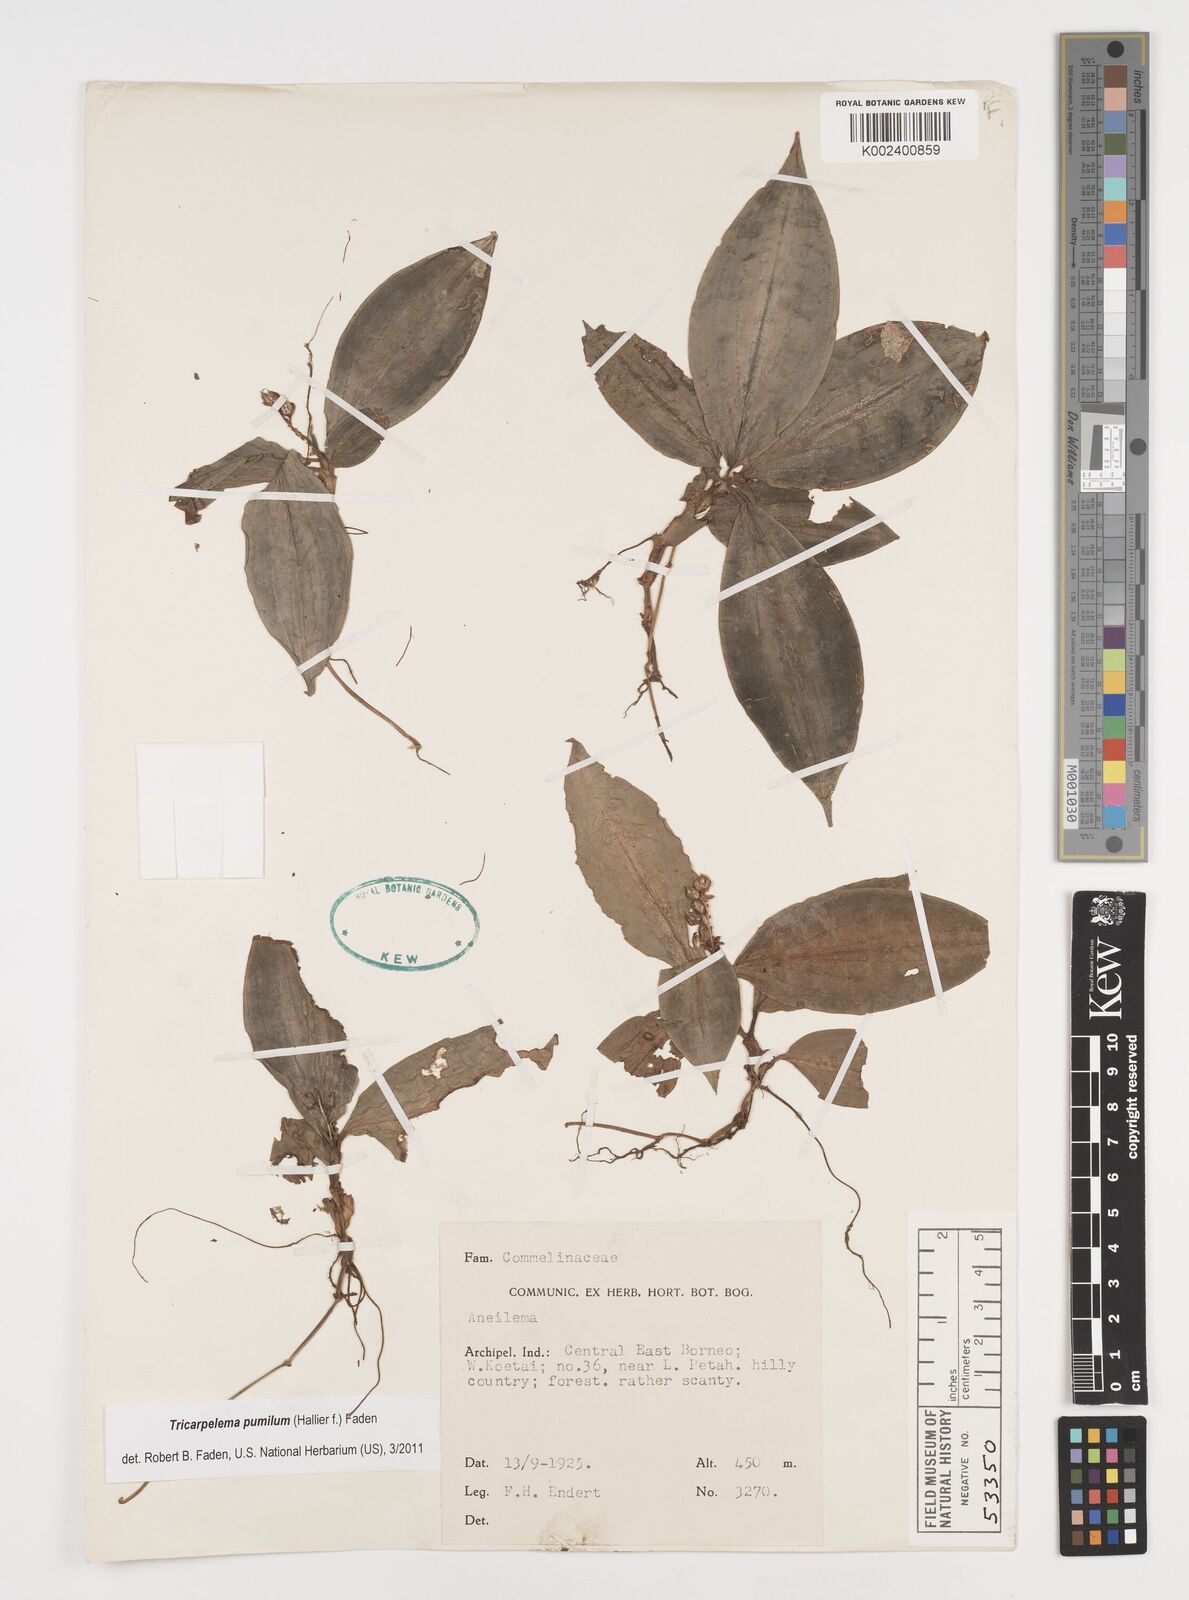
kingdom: Plantae
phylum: Tracheophyta
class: Liliopsida
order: Commelinales
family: Commelinaceae
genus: Tricarpelema
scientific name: Tricarpelema pumilum
